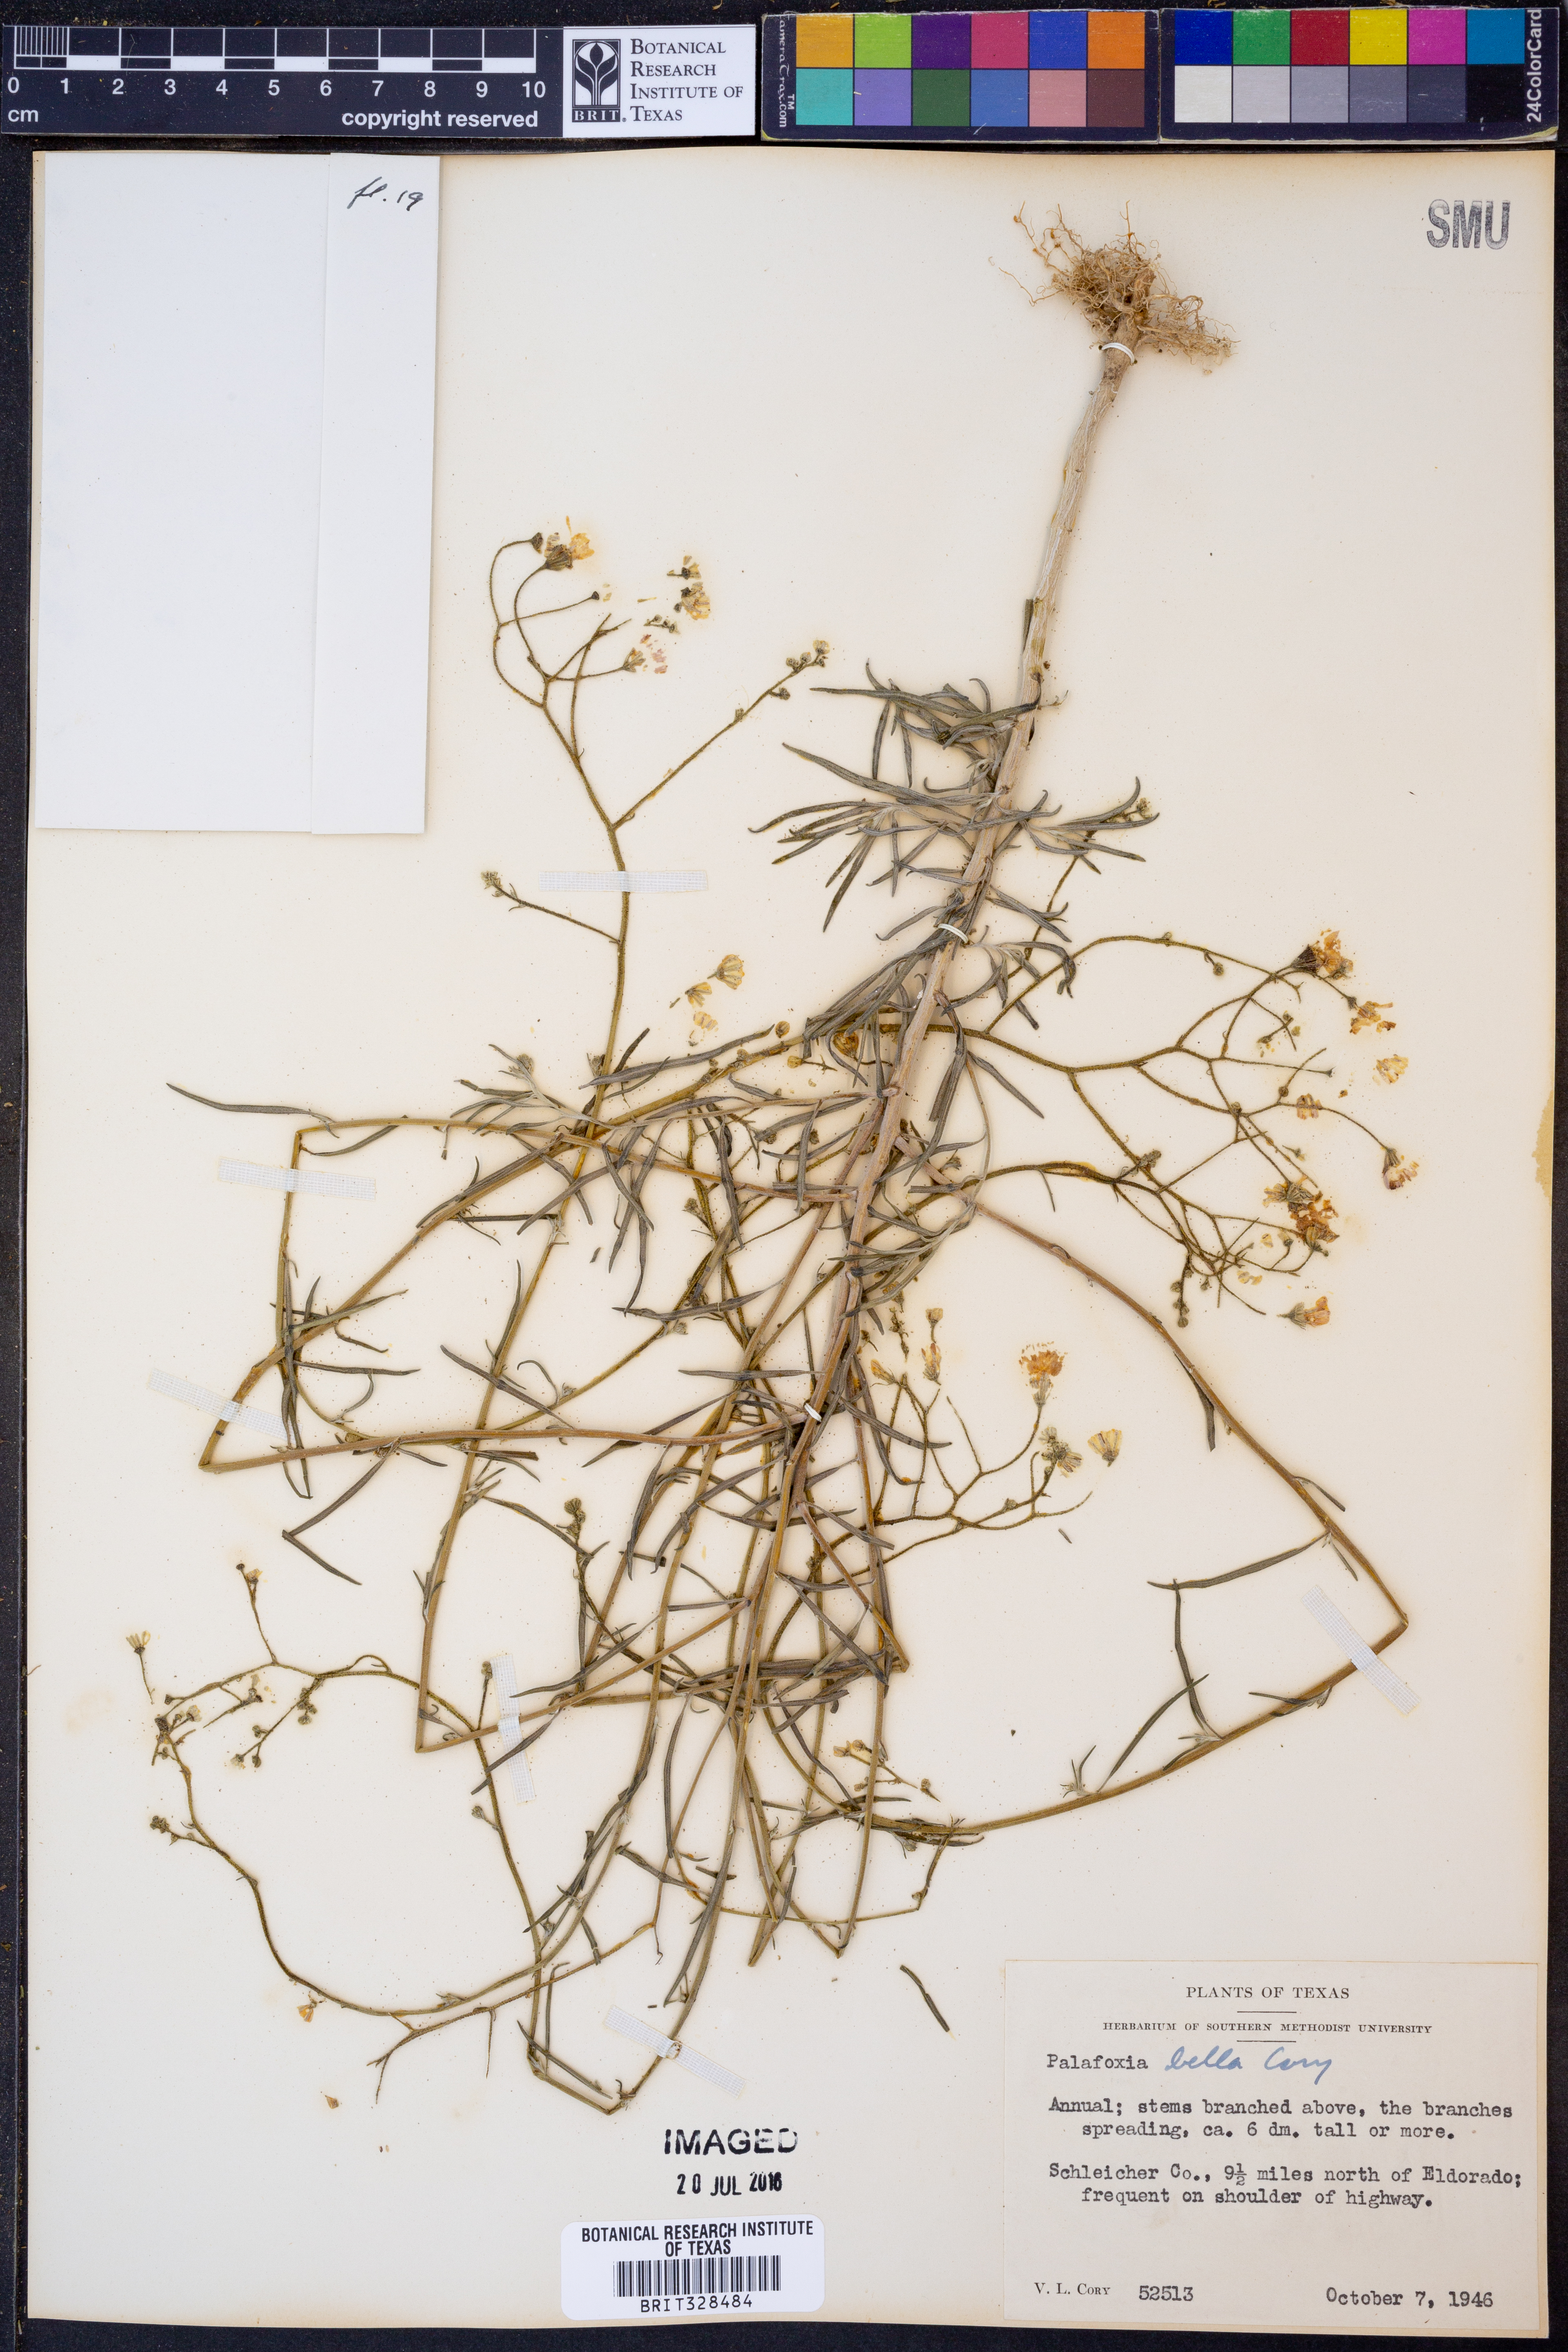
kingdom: Plantae
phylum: Tracheophyta
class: Magnoliopsida
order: Asterales
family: Asteraceae
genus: Palafoxia
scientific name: Palafoxia callosa
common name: Small palafox
